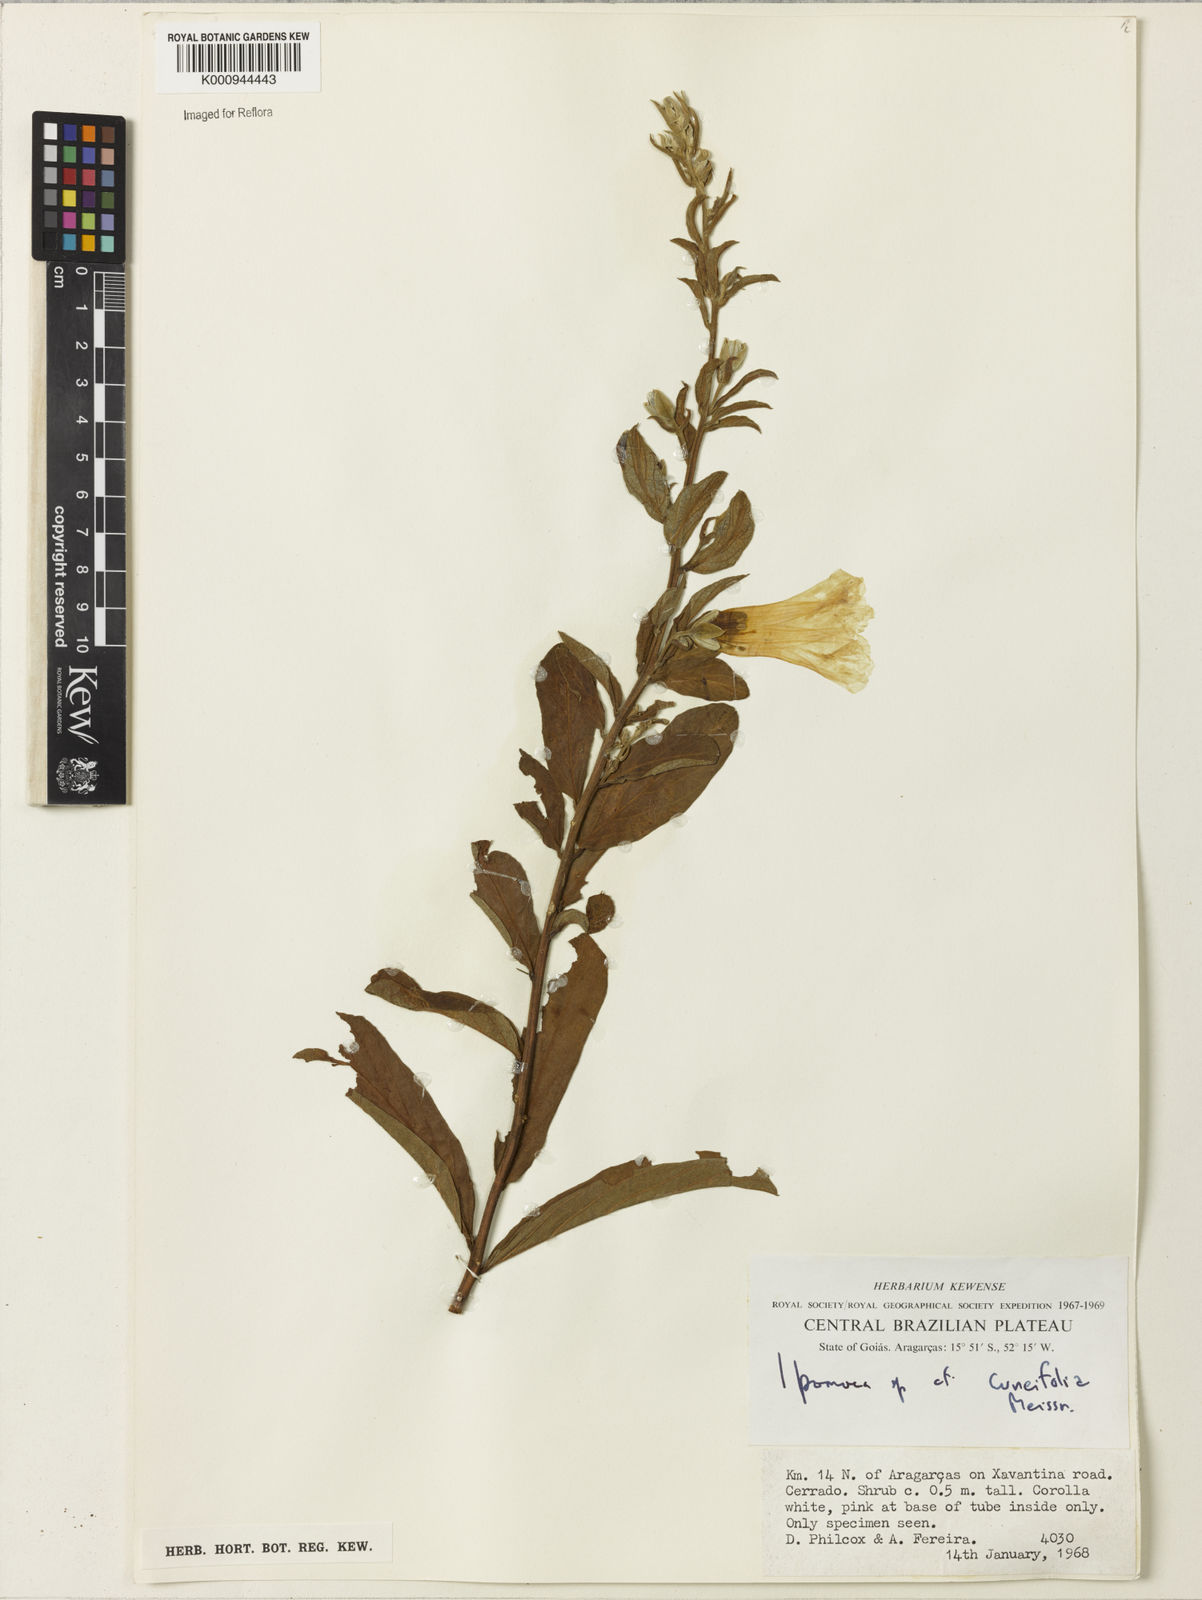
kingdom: Plantae
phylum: Tracheophyta
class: Magnoliopsida
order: Solanales
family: Convolvulaceae
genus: Ipomoea
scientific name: Ipomoea cuneifolia
